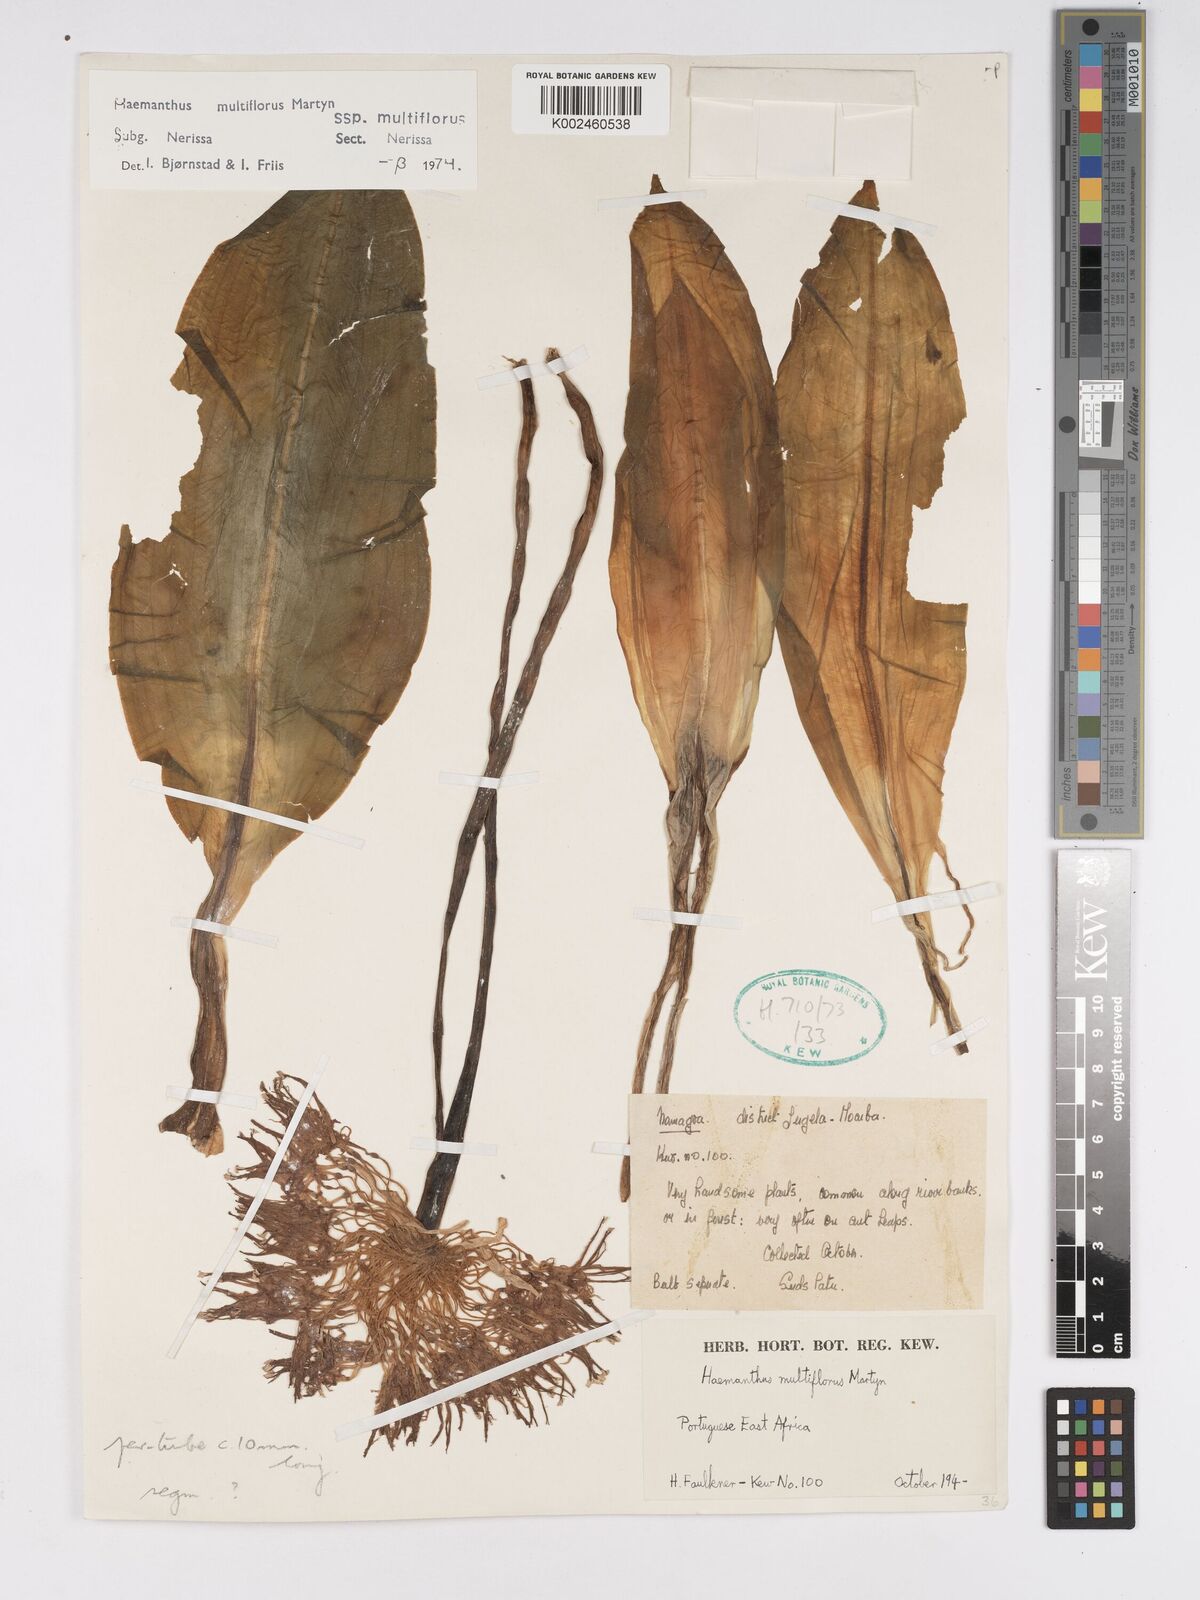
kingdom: Plantae
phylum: Tracheophyta
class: Liliopsida
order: Asparagales
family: Amaryllidaceae
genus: Scadoxus
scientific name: Scadoxus multiflorus
